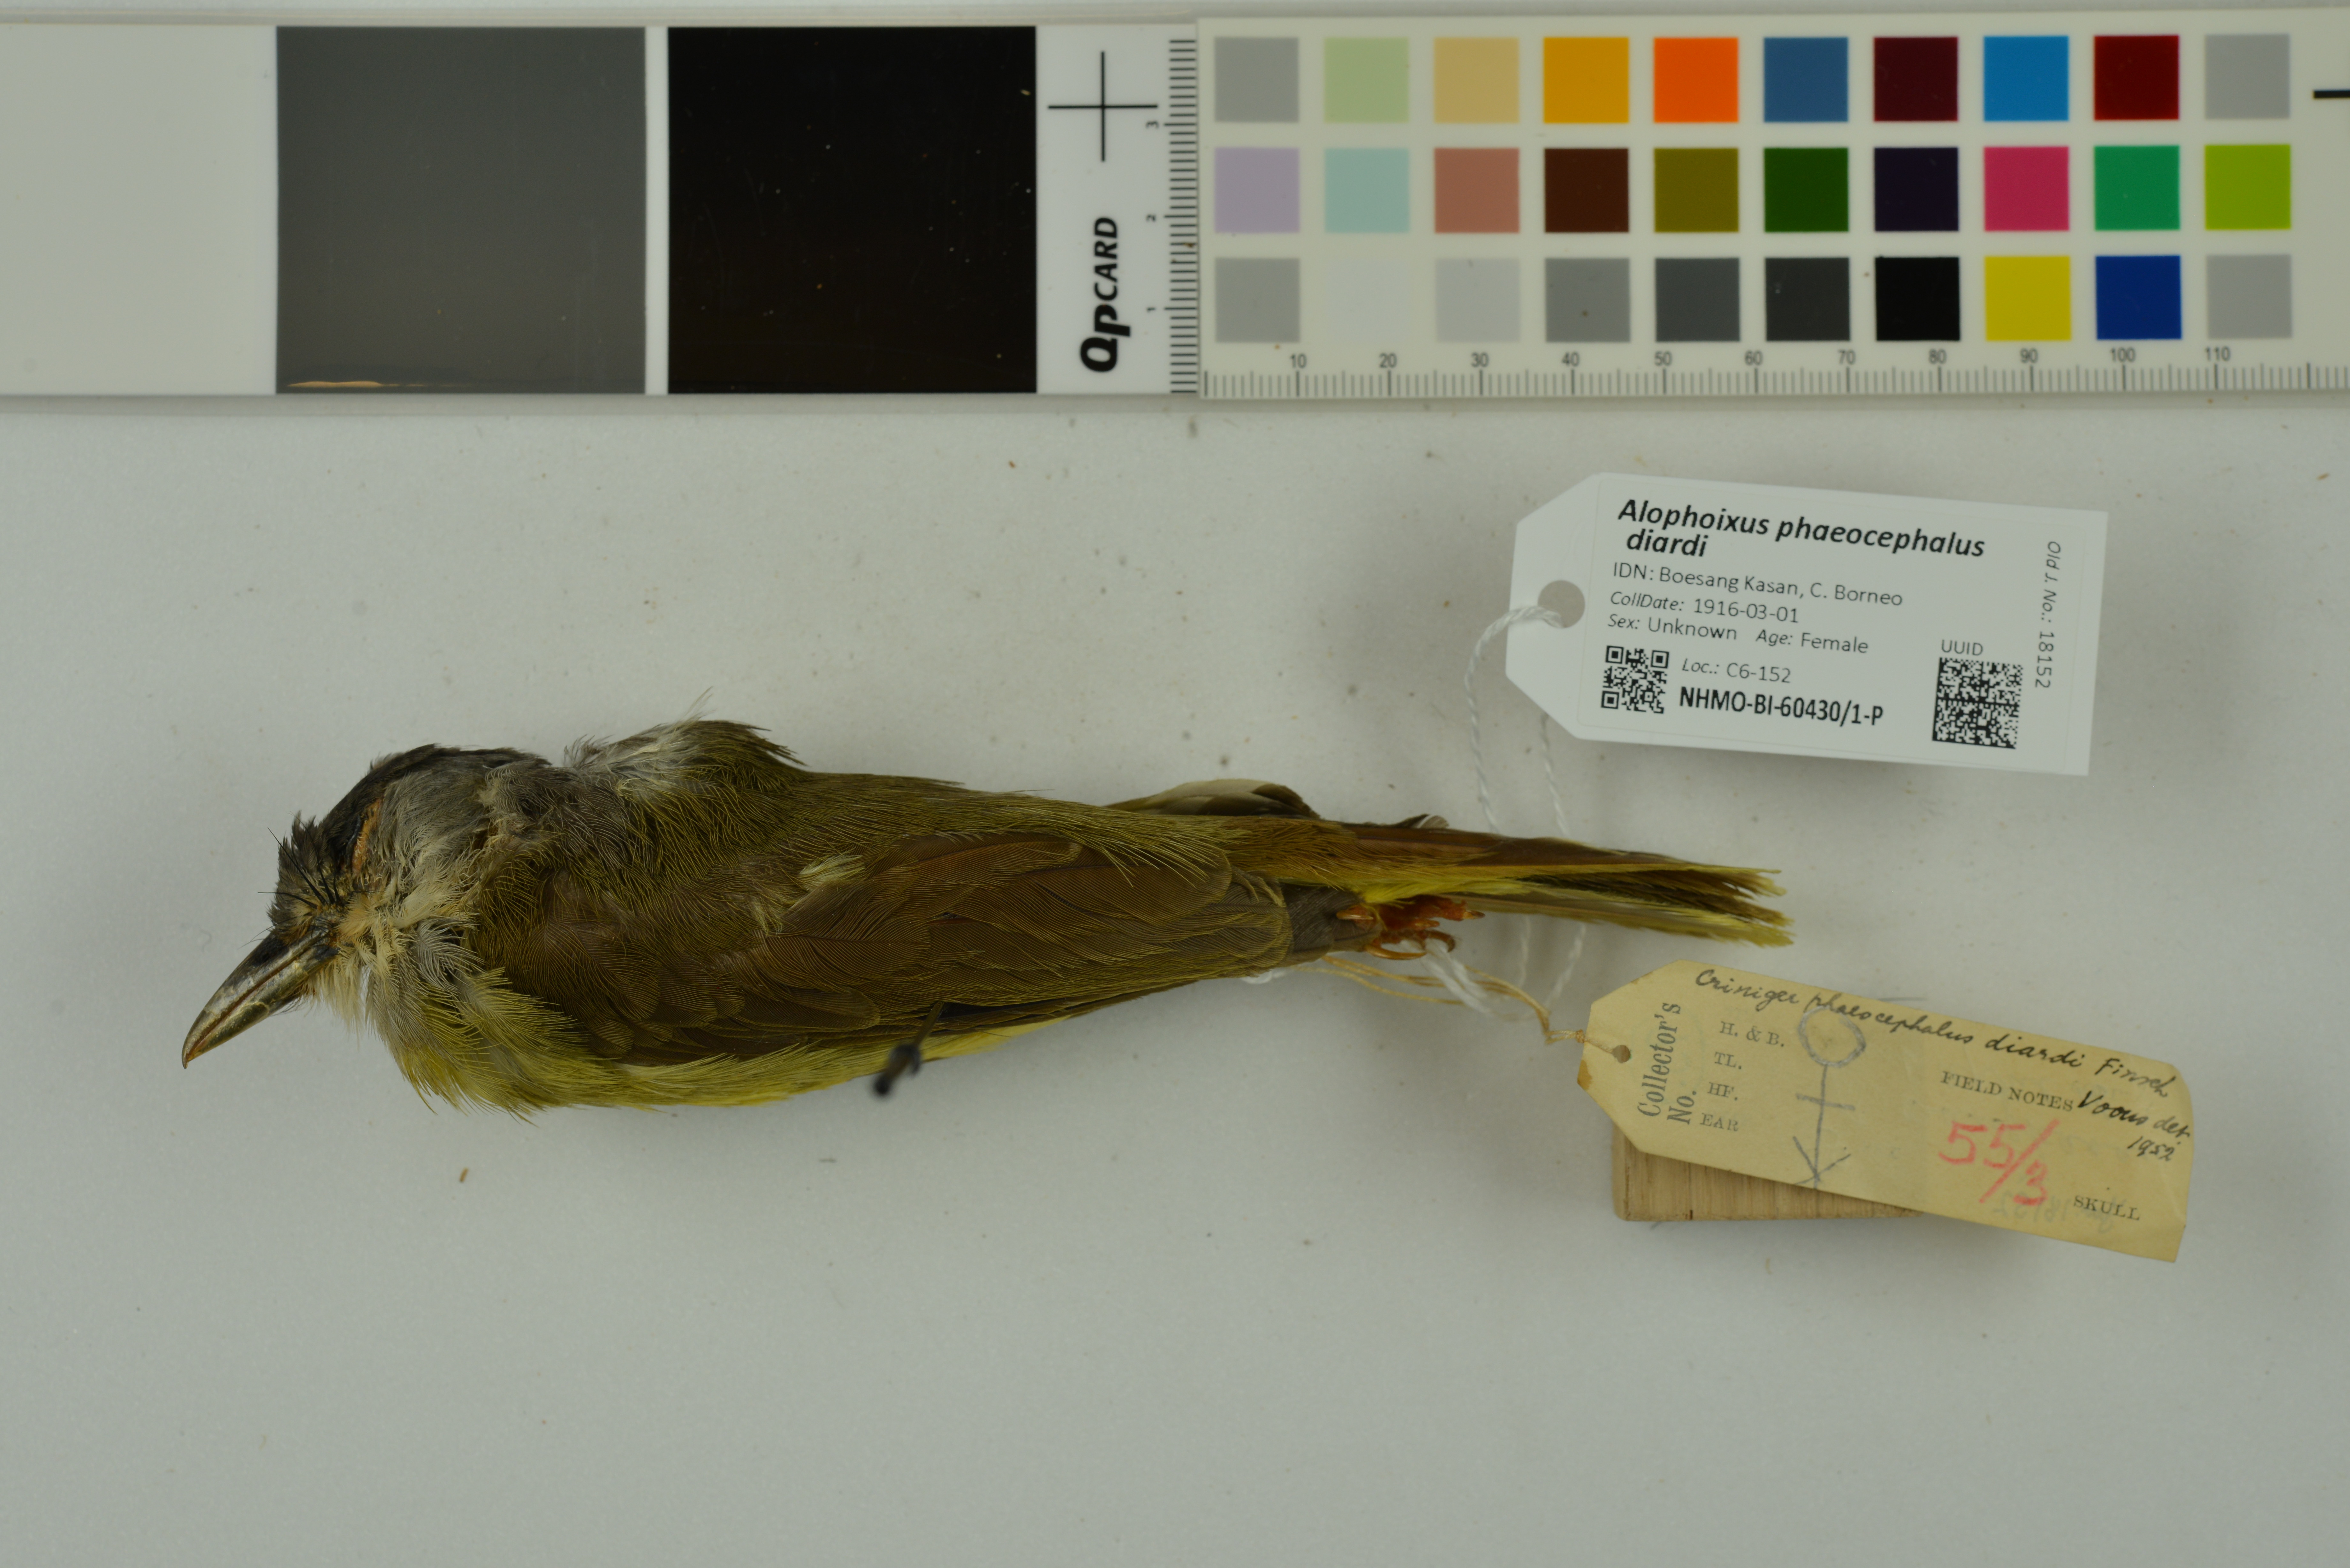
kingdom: Animalia
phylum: Chordata
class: Aves
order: Passeriformes
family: Pycnonotidae
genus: Alophoixus
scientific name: Alophoixus phaeocephalus
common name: Yellow-bellied bulbul
